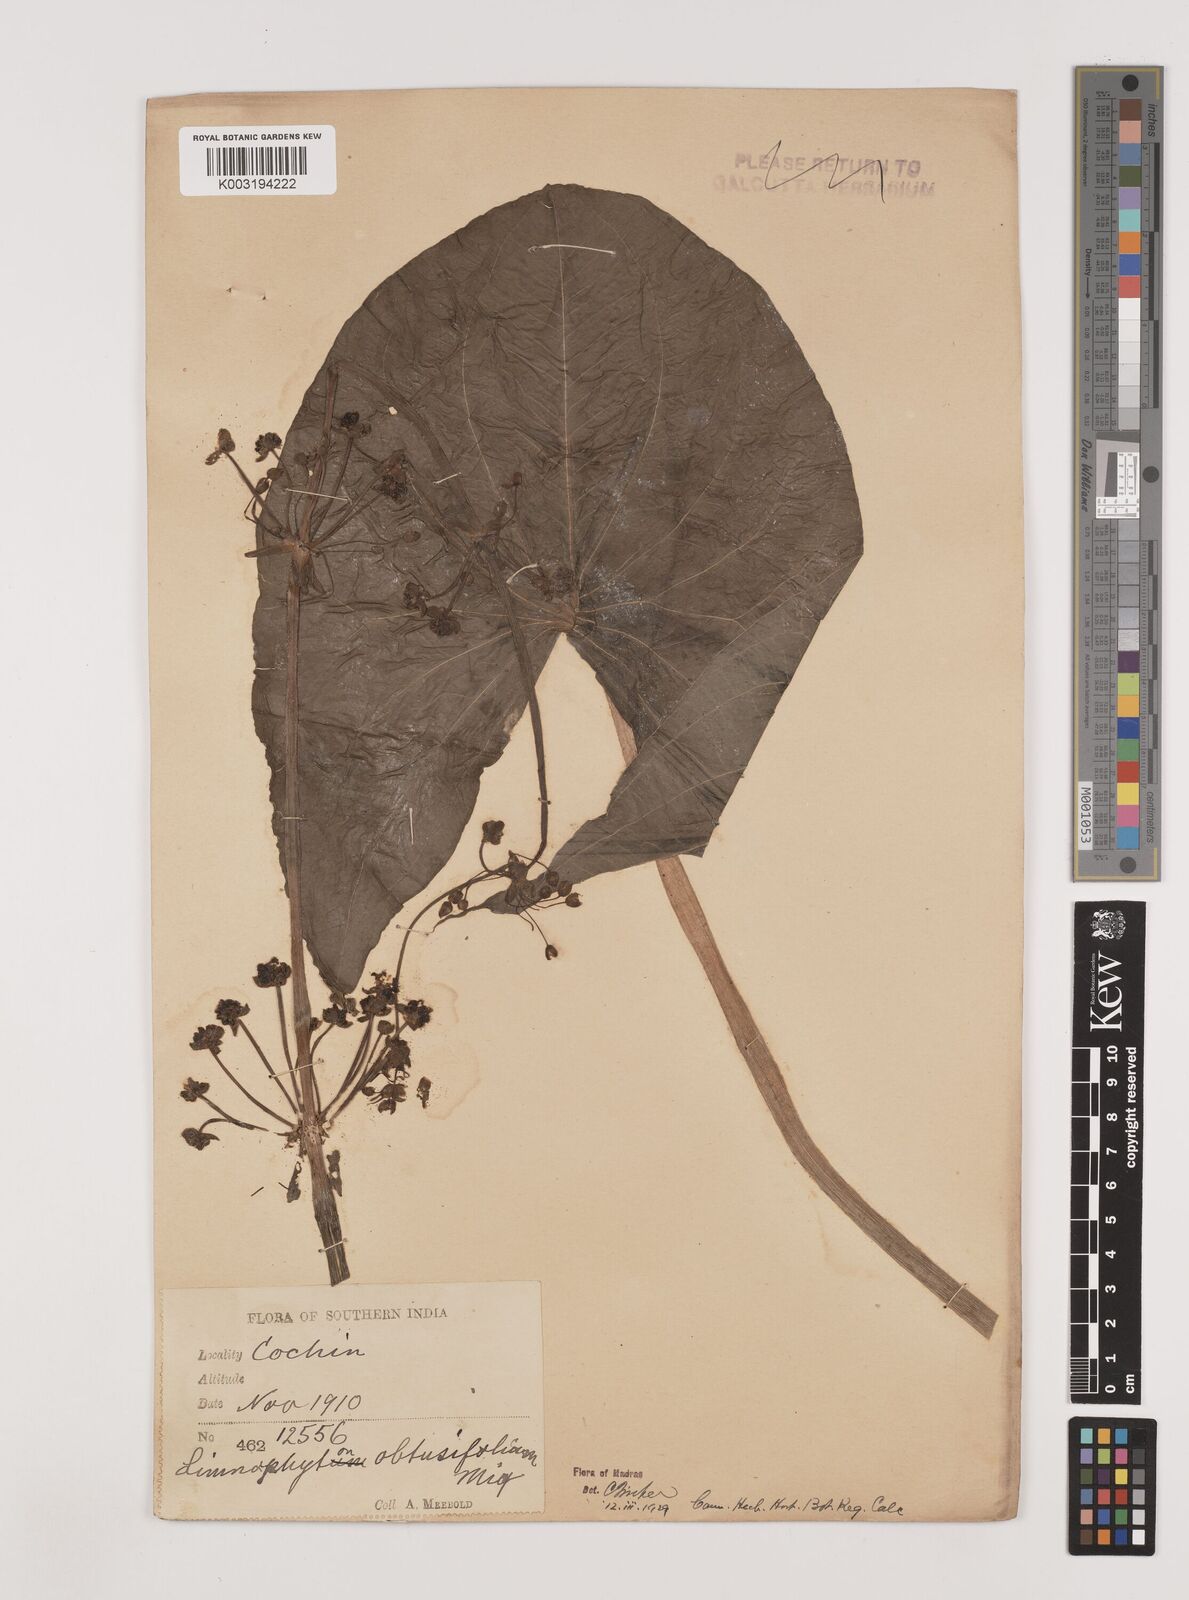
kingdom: Plantae
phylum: Tracheophyta
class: Liliopsida
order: Alismatales
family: Alismataceae
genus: Limnophyton
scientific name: Limnophyton obtusifolium
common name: Arrow head
